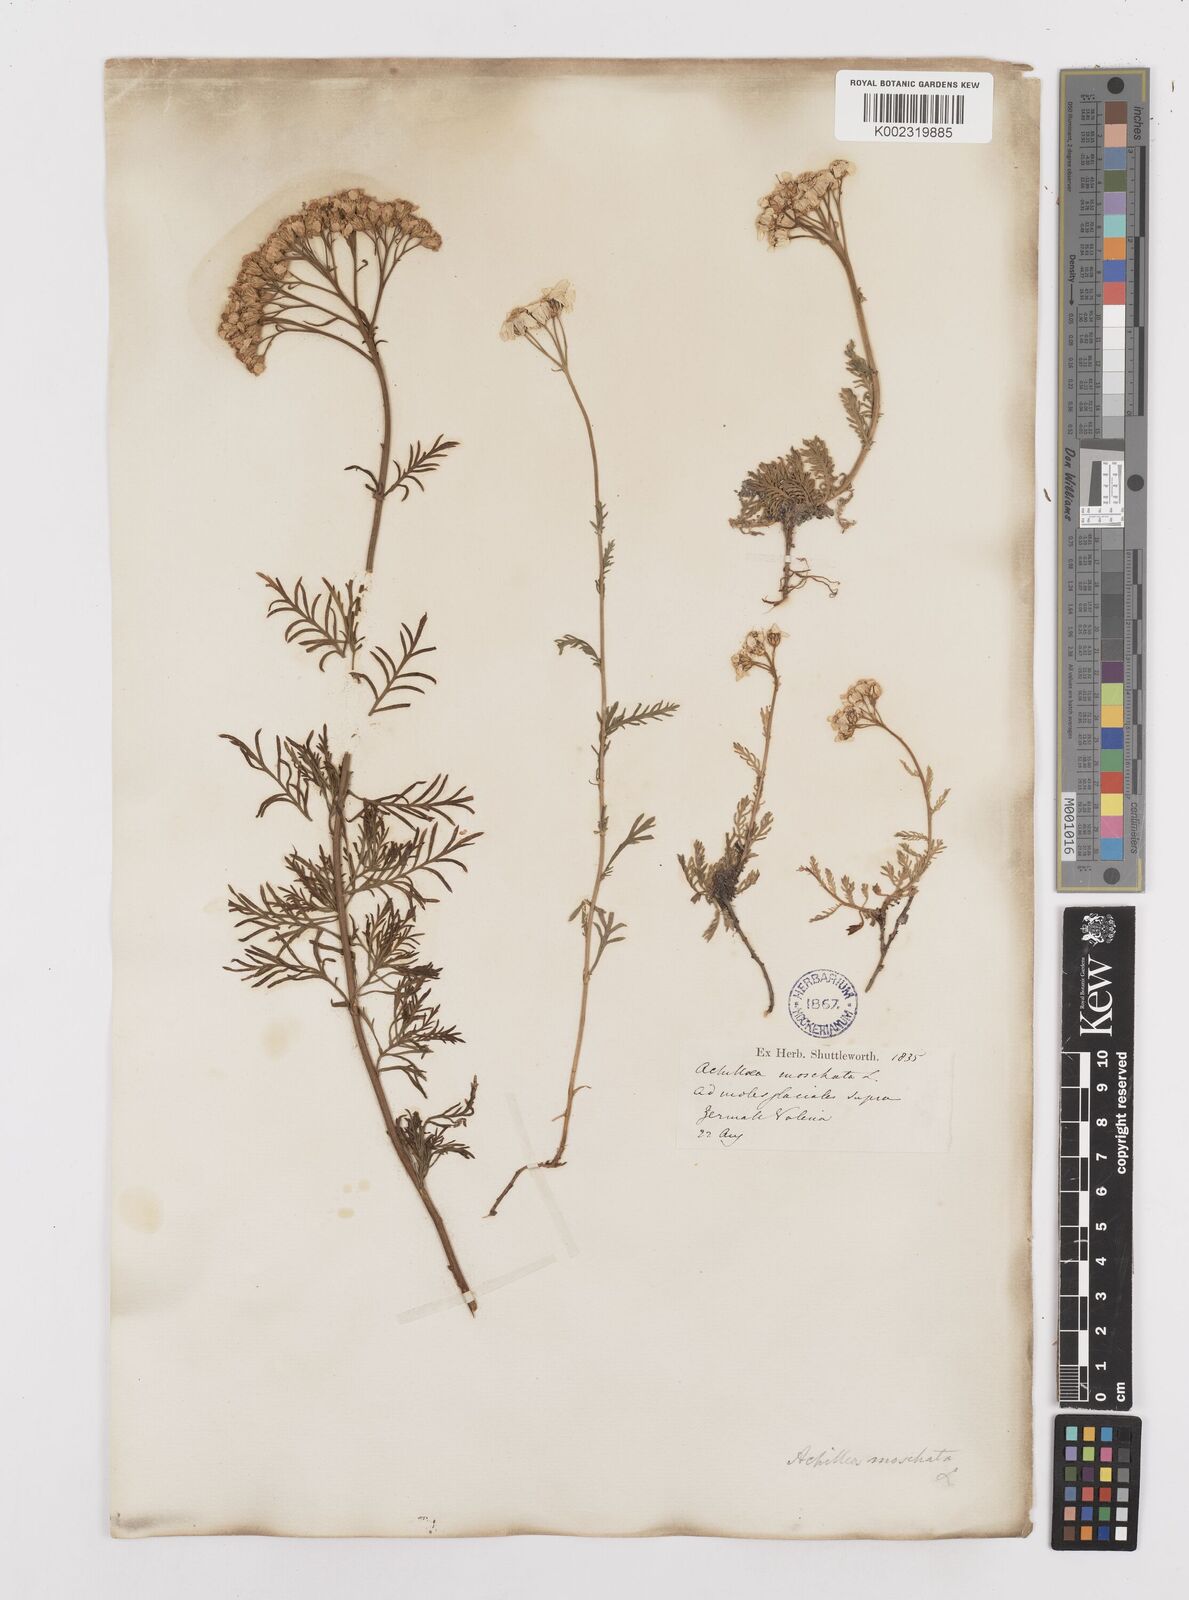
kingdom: Plantae
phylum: Tracheophyta
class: Magnoliopsida
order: Asterales
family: Asteraceae
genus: Achillea
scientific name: Achillea erba-rotta
